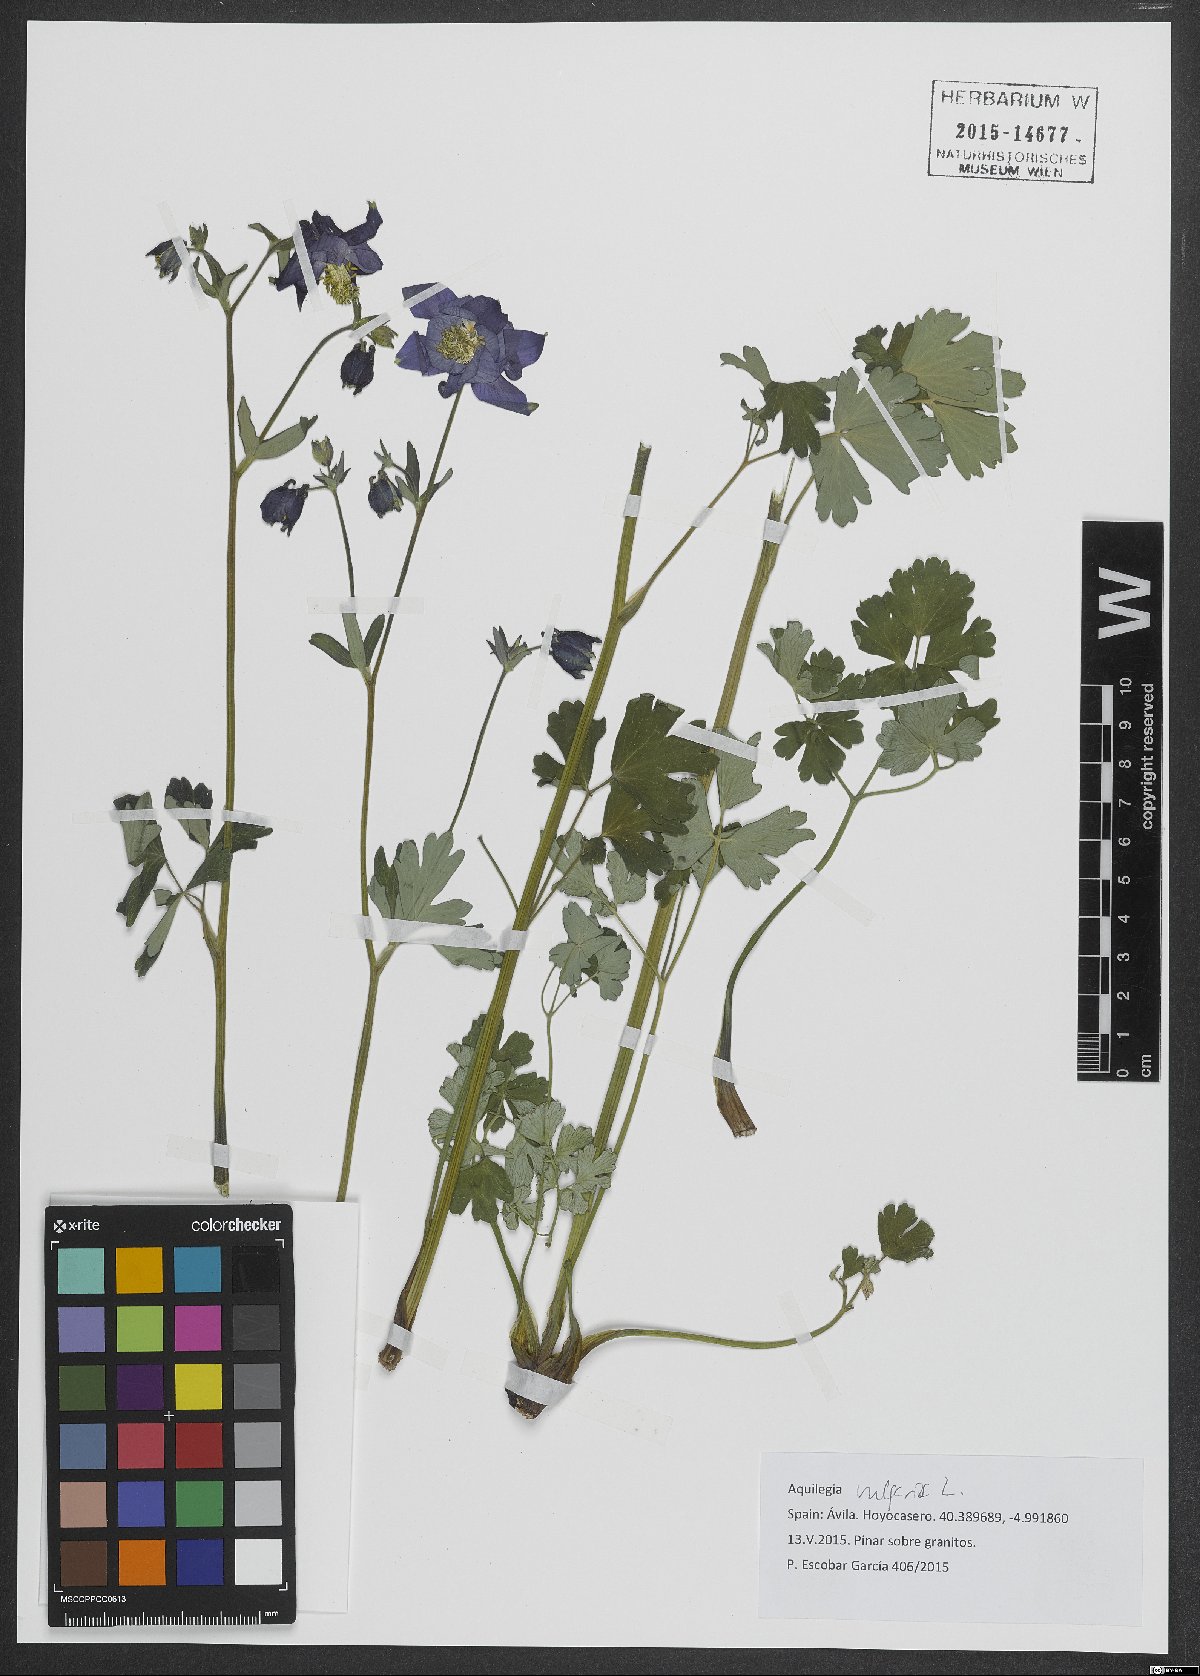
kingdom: Plantae
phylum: Tracheophyta
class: Magnoliopsida
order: Ranunculales
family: Ranunculaceae
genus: Aquilegia
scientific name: Aquilegia vulgaris
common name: Columbine
